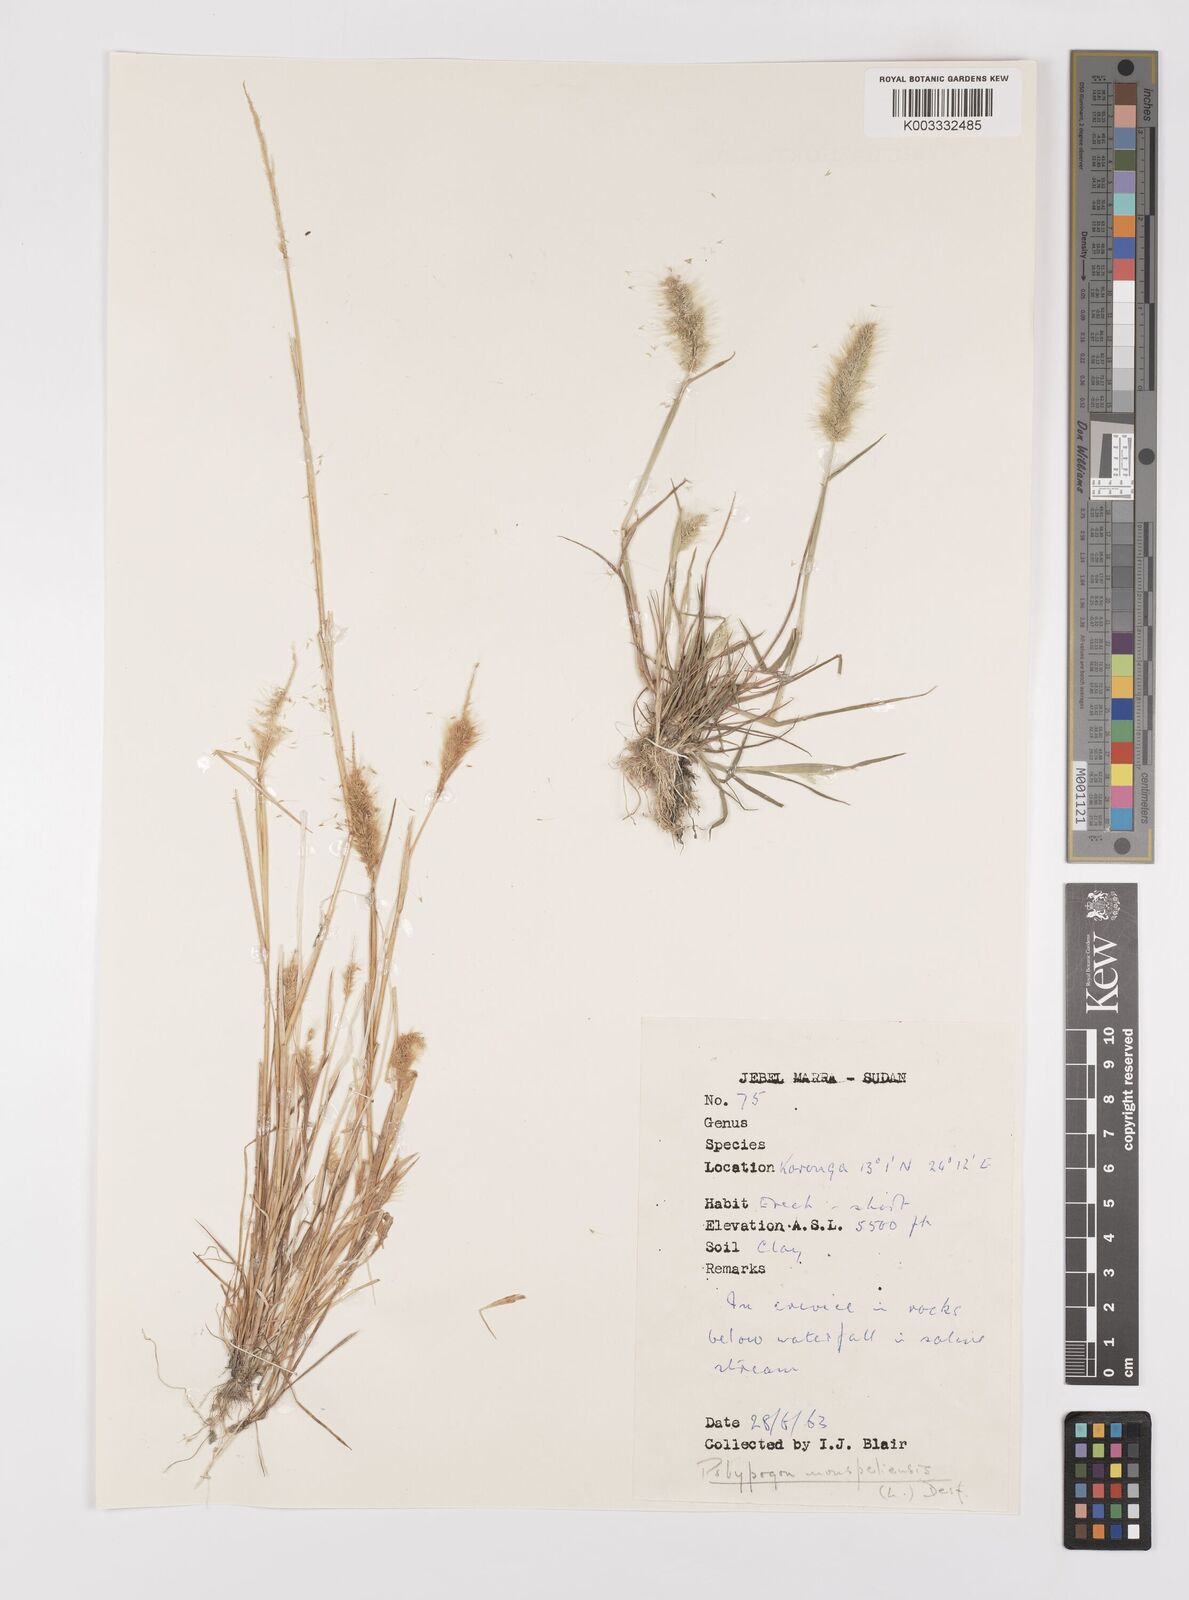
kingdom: Plantae
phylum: Tracheophyta
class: Liliopsida
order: Poales
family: Poaceae
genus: Polypogon
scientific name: Polypogon monspeliensis
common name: Annual rabbitsfoot grass
